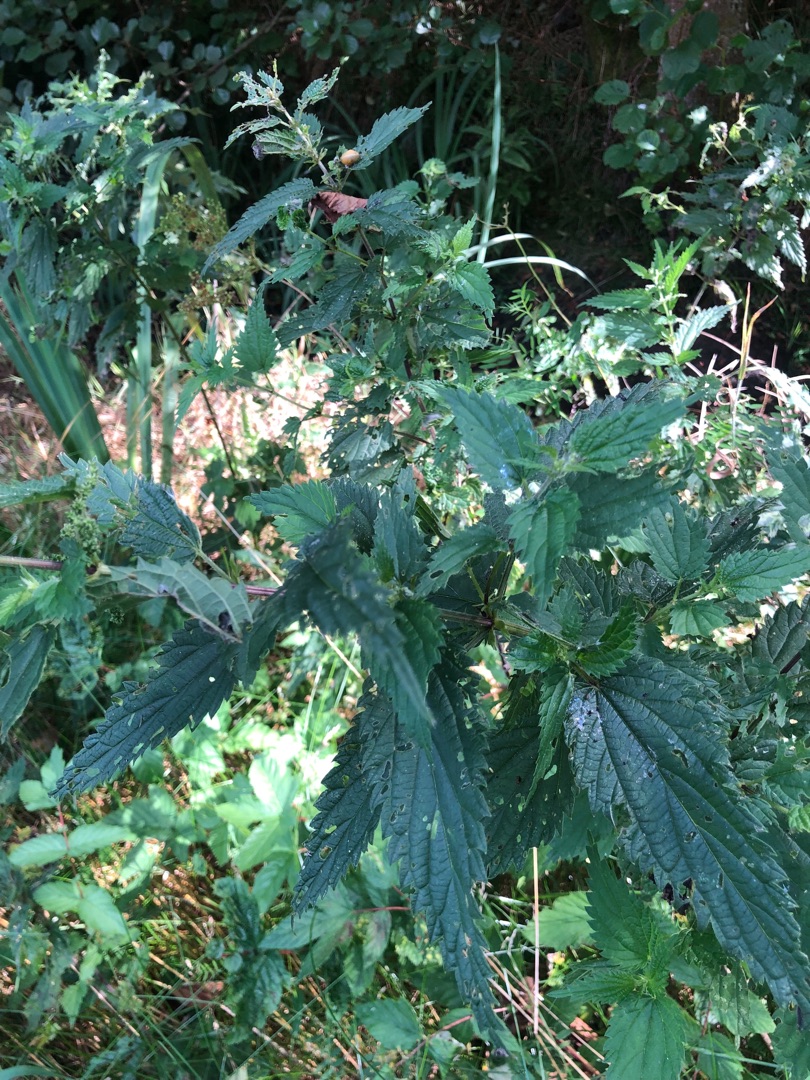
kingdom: Plantae
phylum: Tracheophyta
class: Magnoliopsida
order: Rosales
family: Urticaceae
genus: Urtica
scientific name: Urtica dioica
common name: Stor nælde
